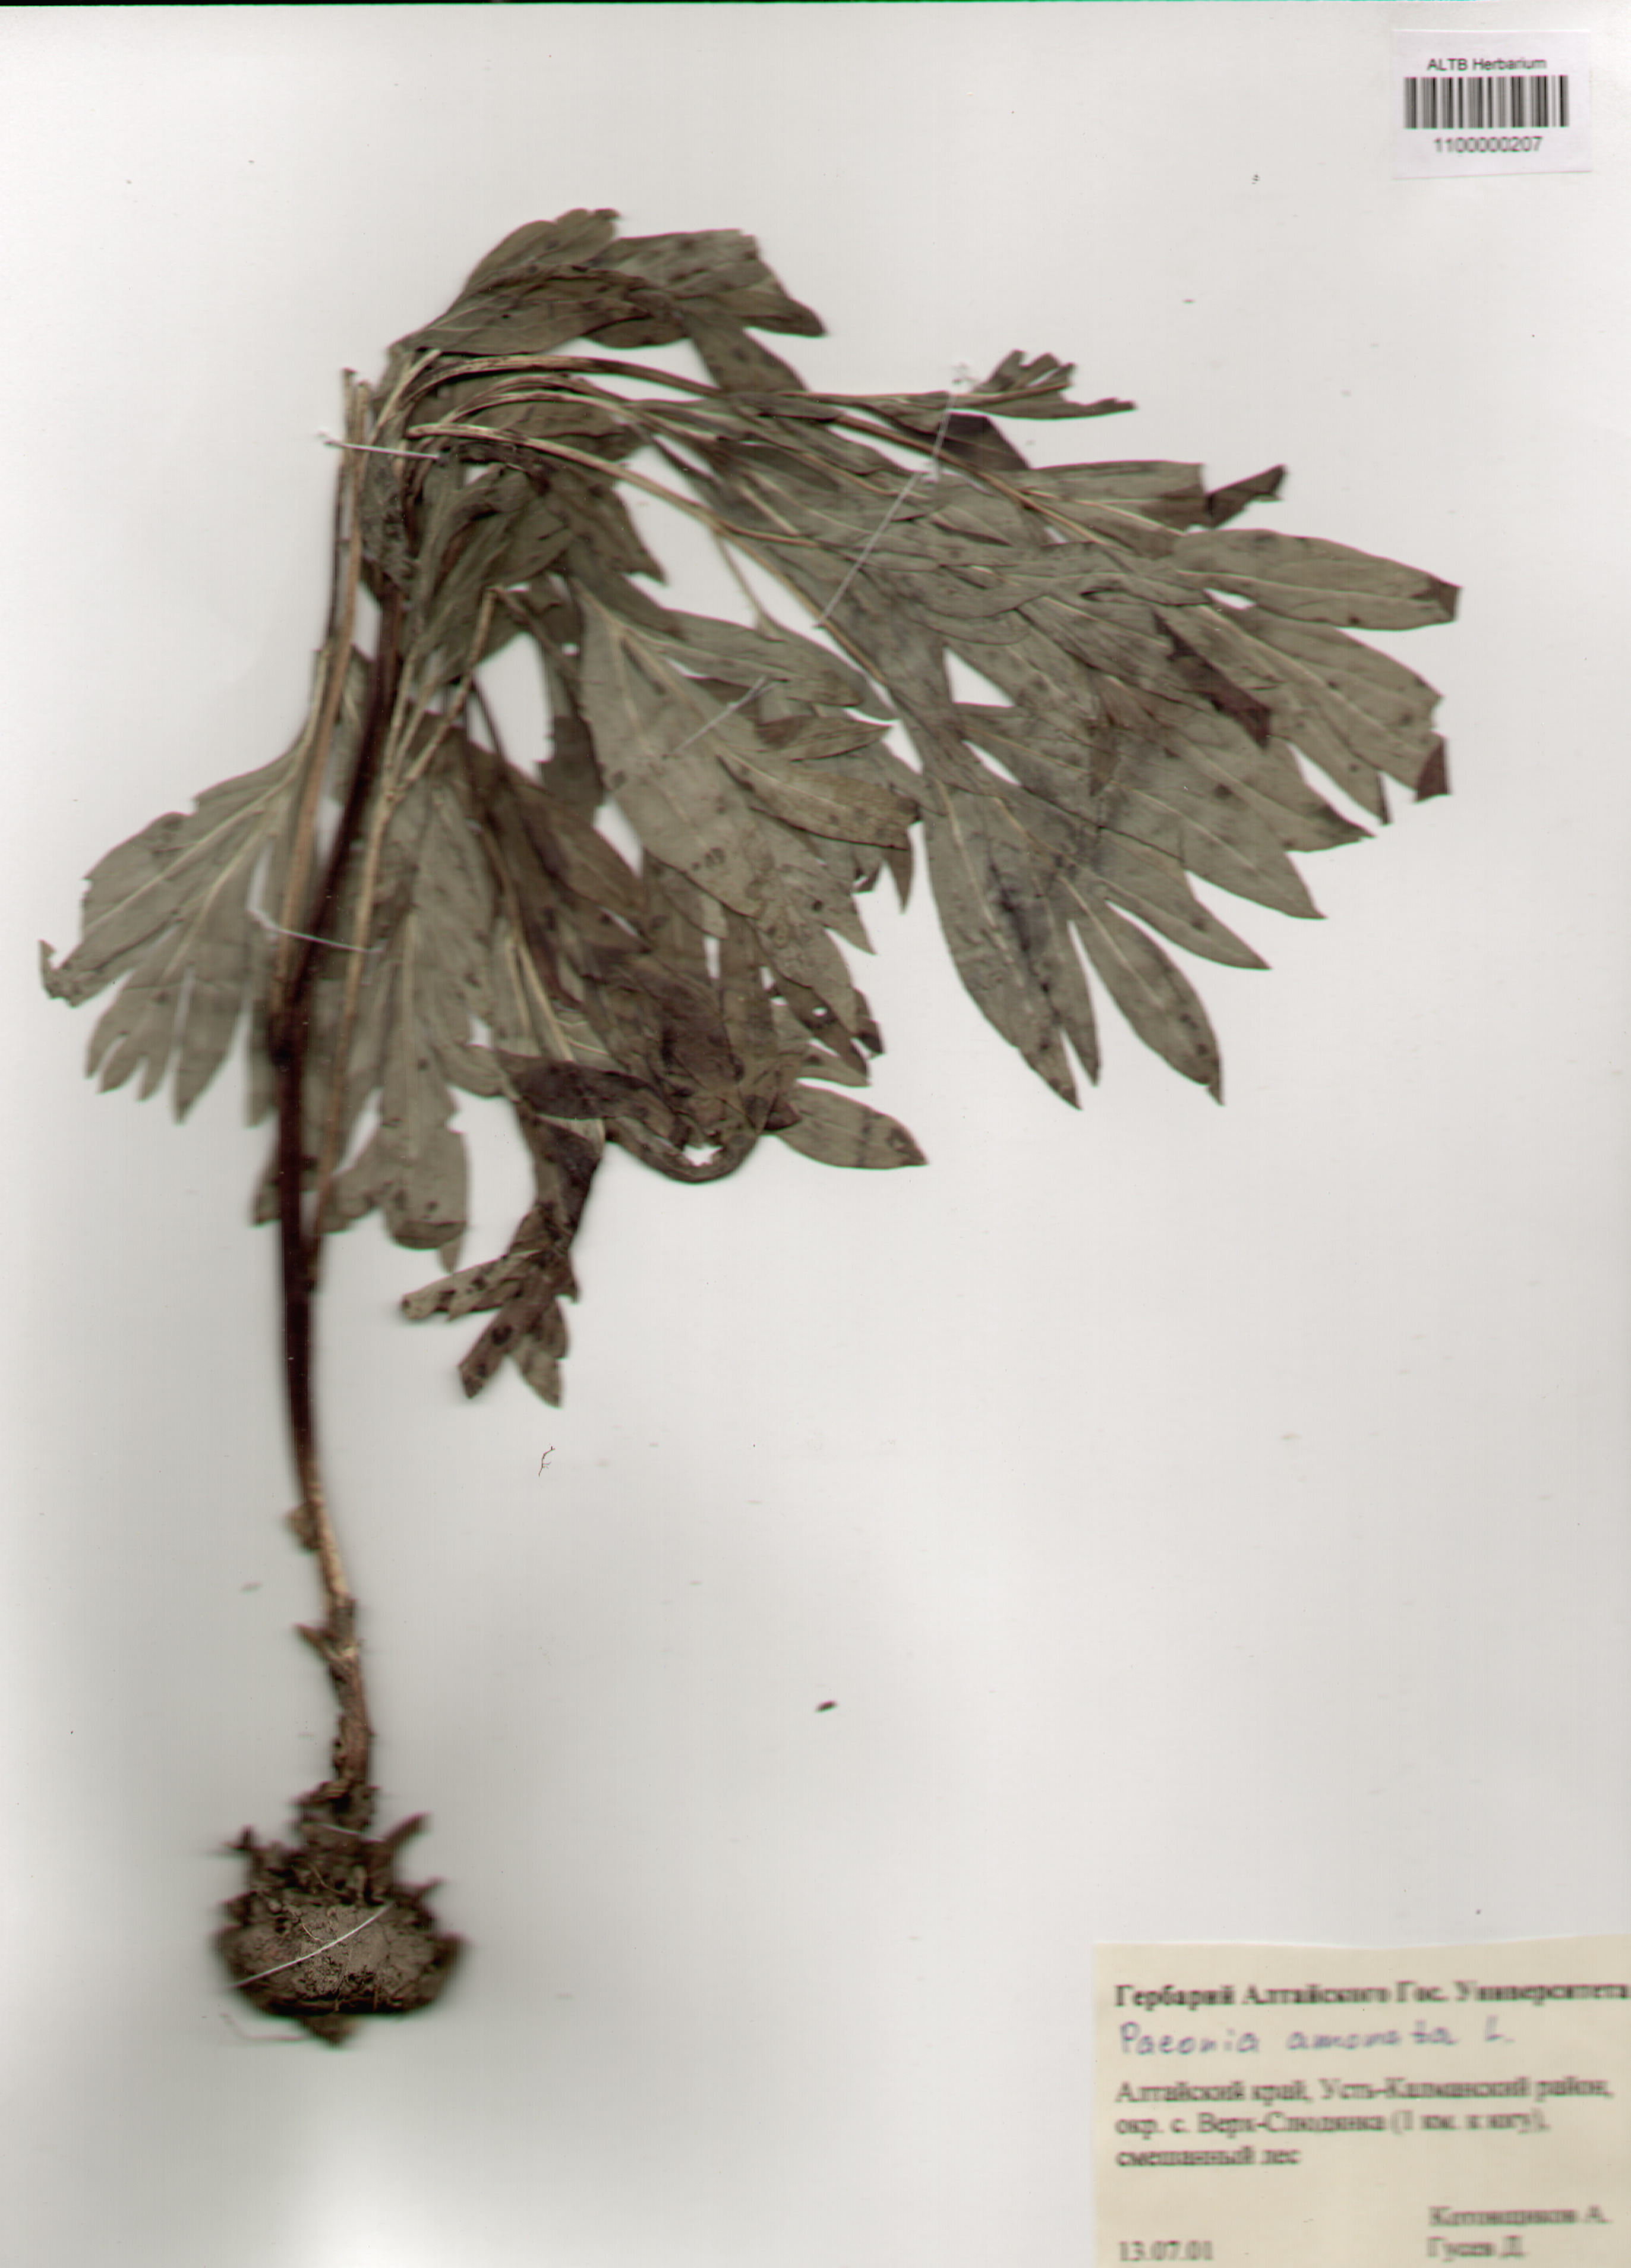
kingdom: Plantae
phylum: Tracheophyta
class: Magnoliopsida
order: Saxifragales
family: Paeoniaceae
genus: Paeonia
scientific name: Paeonia anomala
